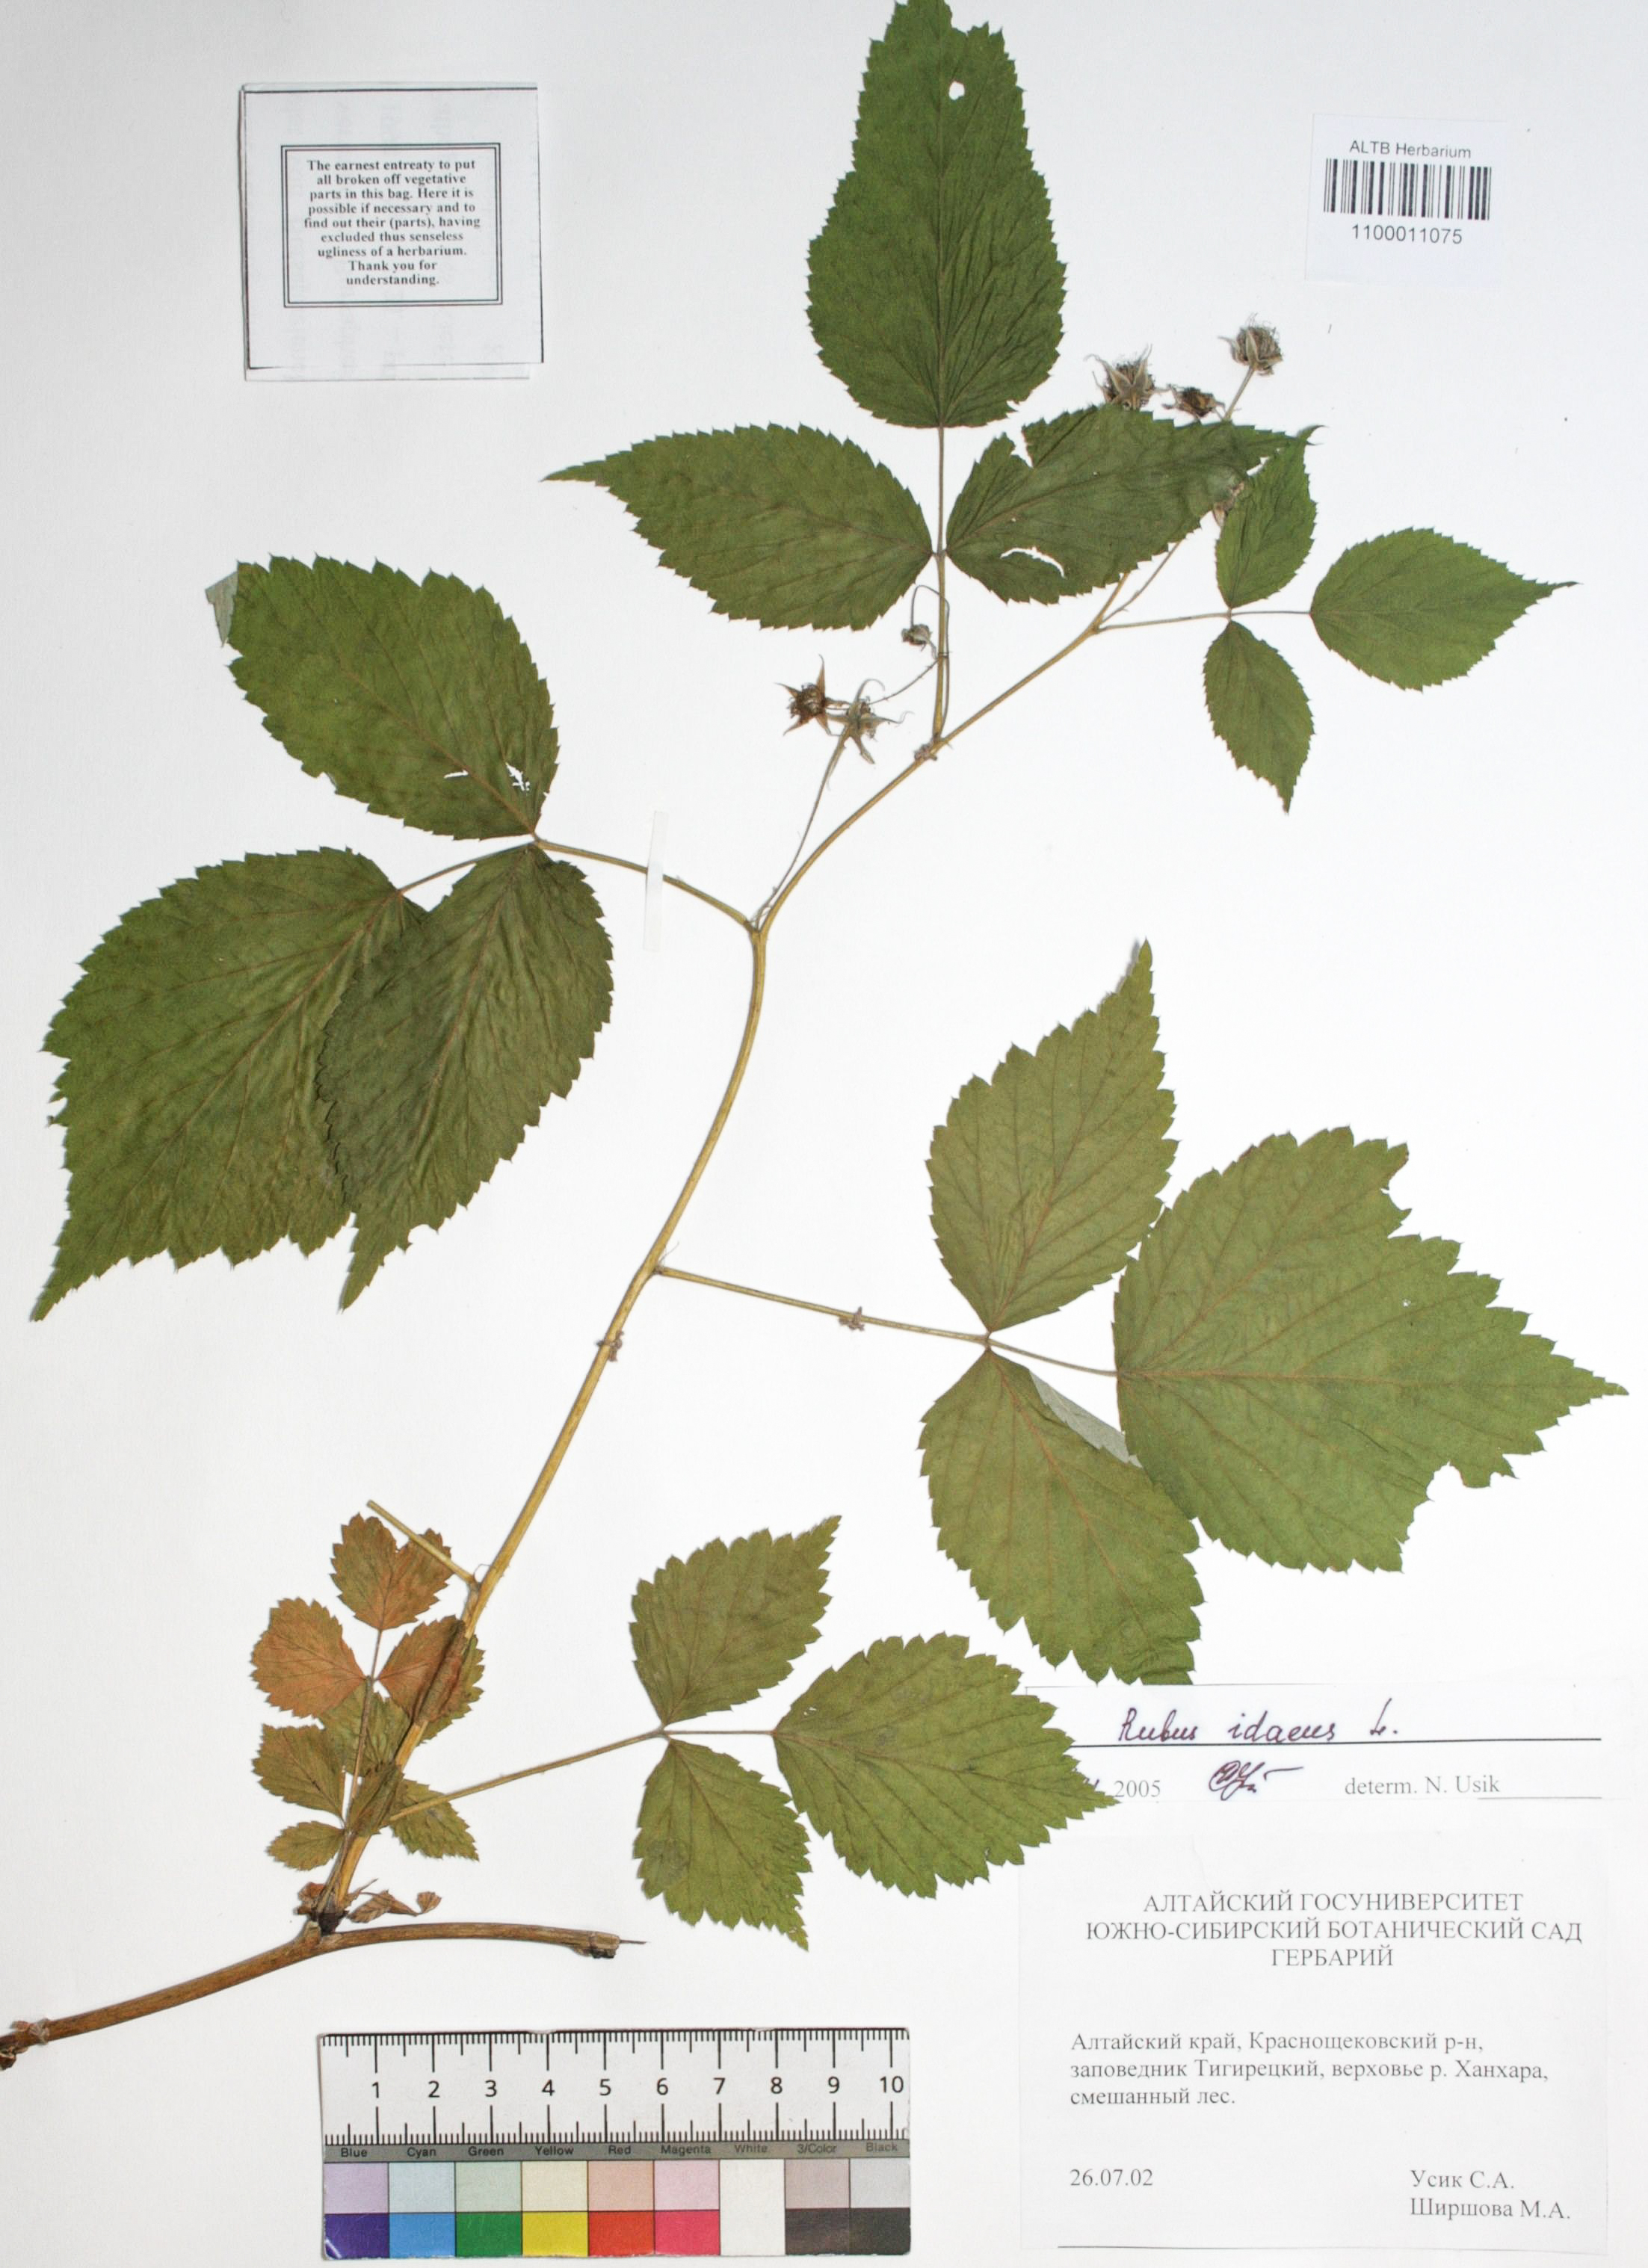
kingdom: Plantae
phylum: Tracheophyta
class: Magnoliopsida
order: Rosales
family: Rosaceae
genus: Rubus
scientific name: Rubus idaeus
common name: Raspberry
